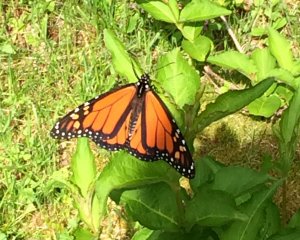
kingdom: Animalia
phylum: Arthropoda
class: Insecta
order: Lepidoptera
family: Nymphalidae
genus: Danaus
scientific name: Danaus plexippus
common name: Monarch
